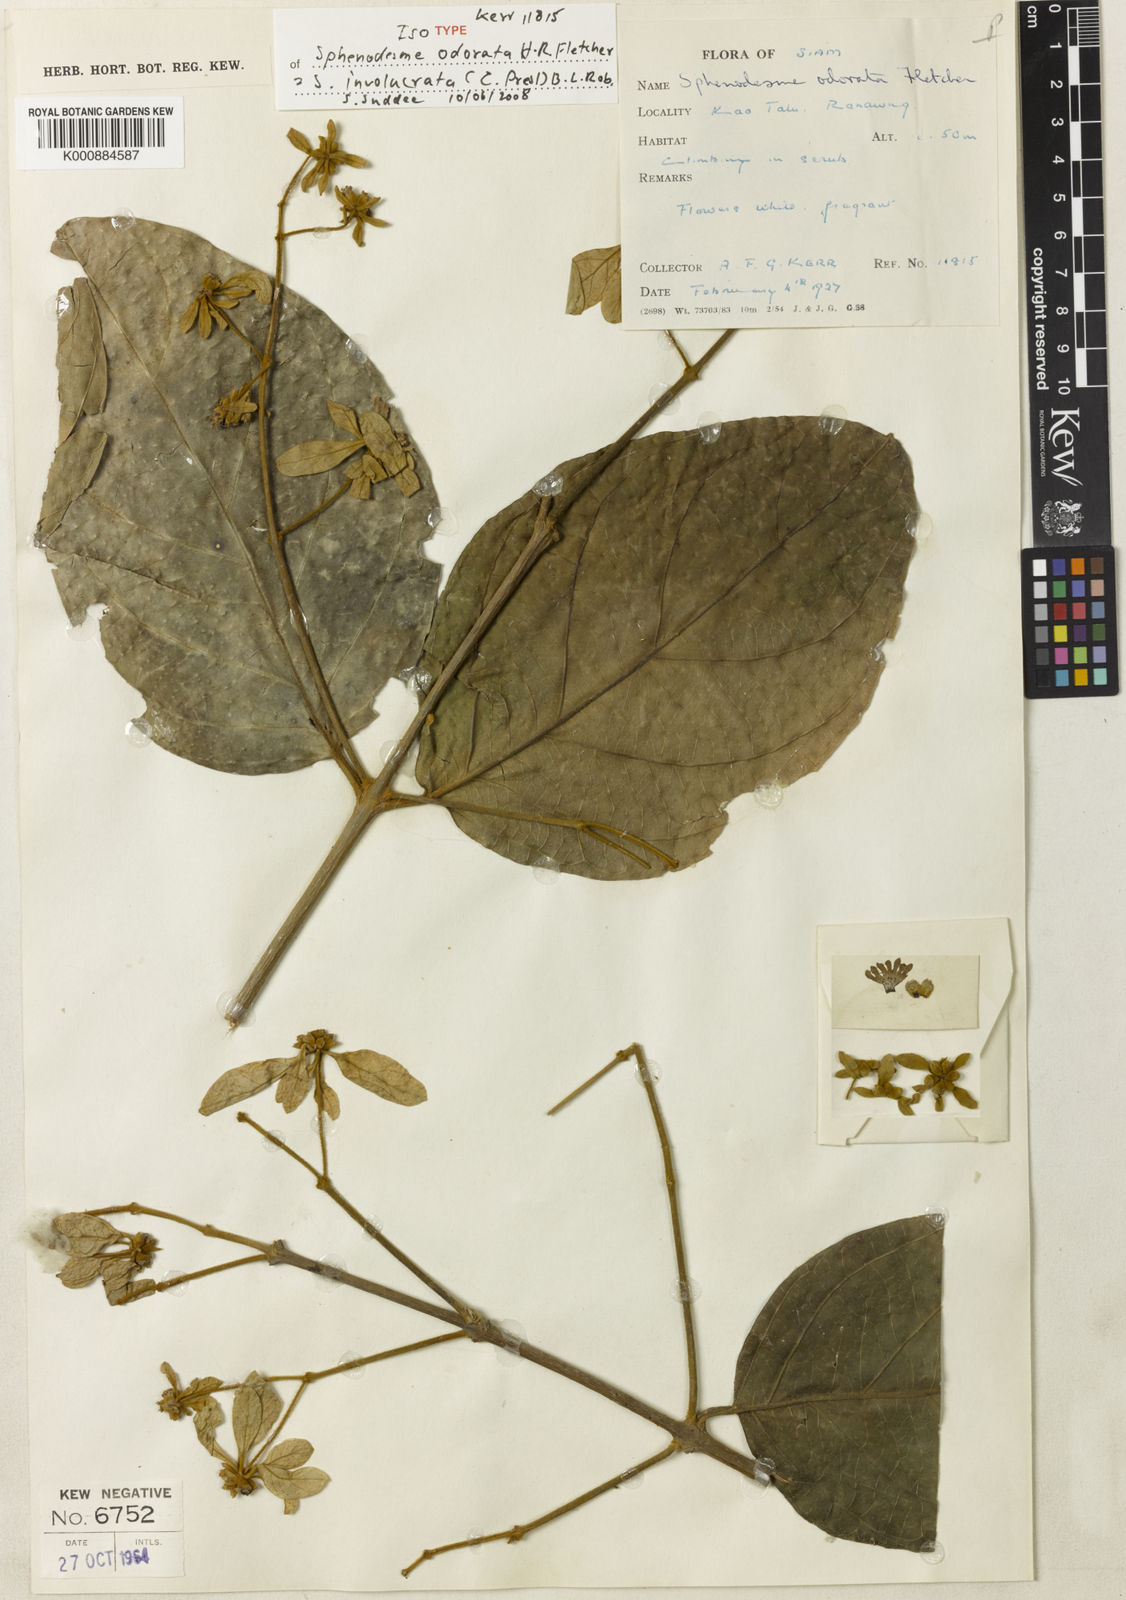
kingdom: Plantae
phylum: Tracheophyta
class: Magnoliopsida
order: Lamiales
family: Lamiaceae
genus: Sphenodesme
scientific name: Sphenodesme involucrata
